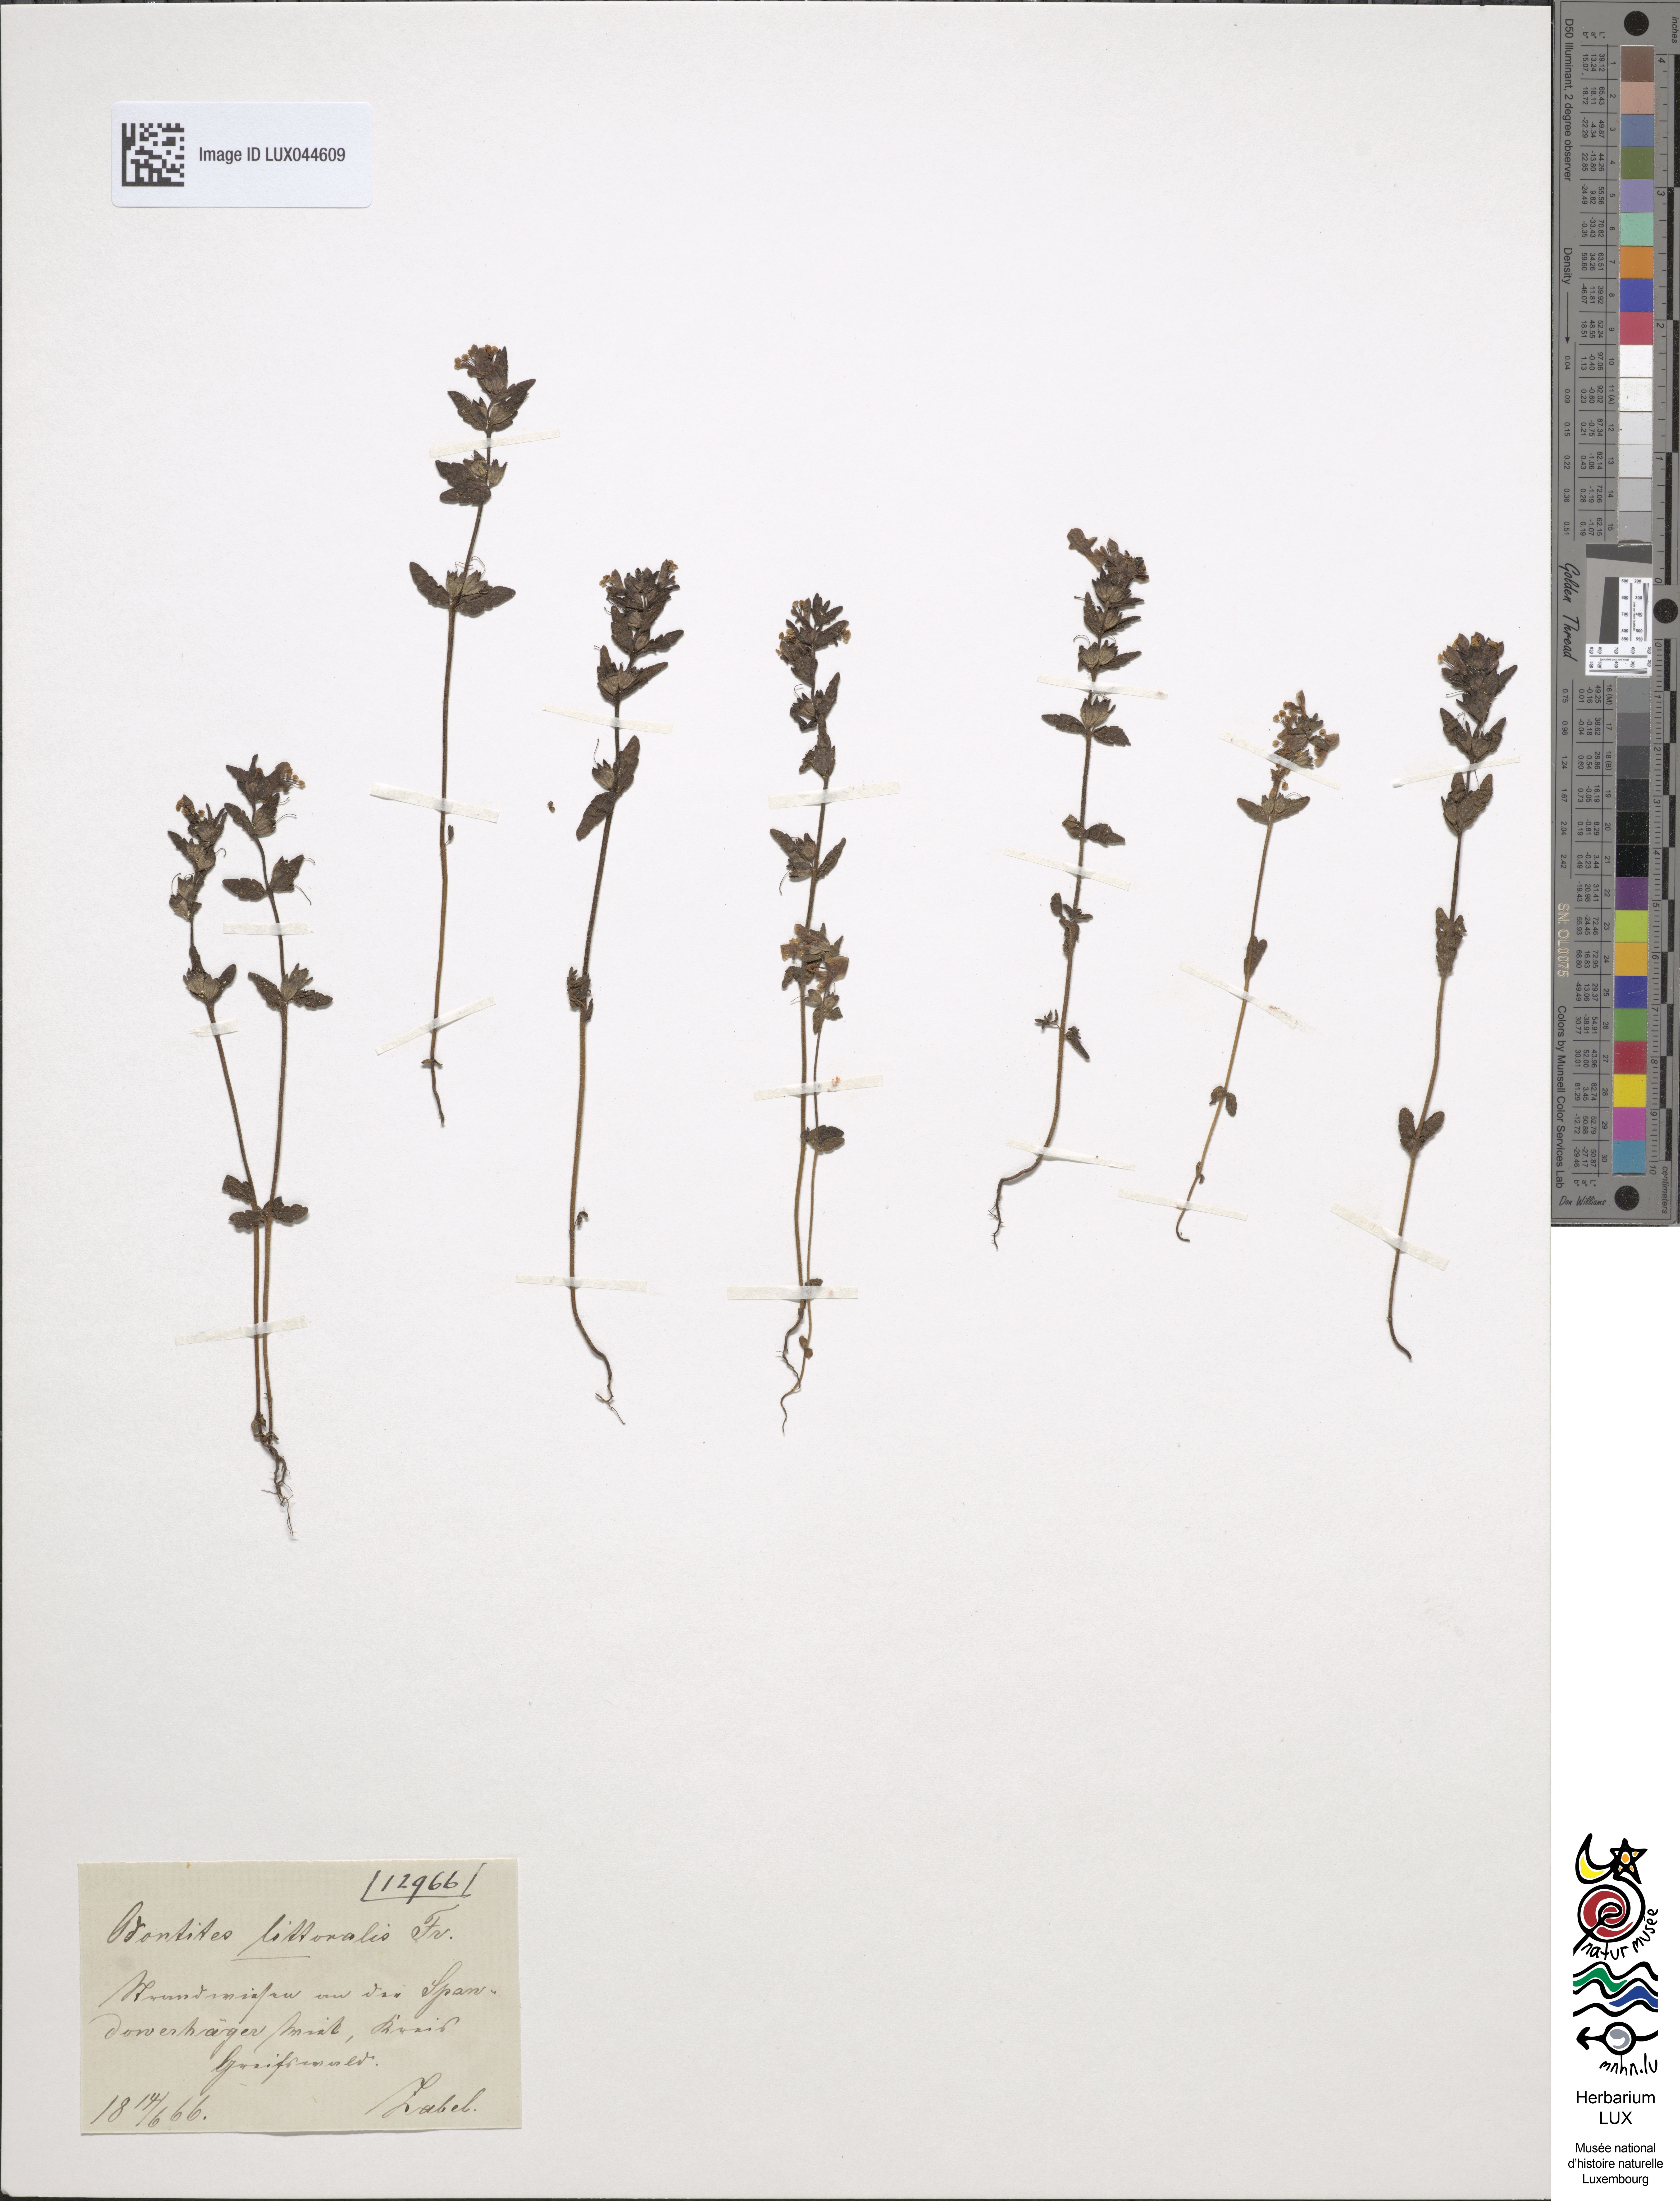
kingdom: Plantae
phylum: Tracheophyta
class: Magnoliopsida
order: Lamiales
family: Orobanchaceae
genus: Odontites
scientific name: Odontites litoralis
